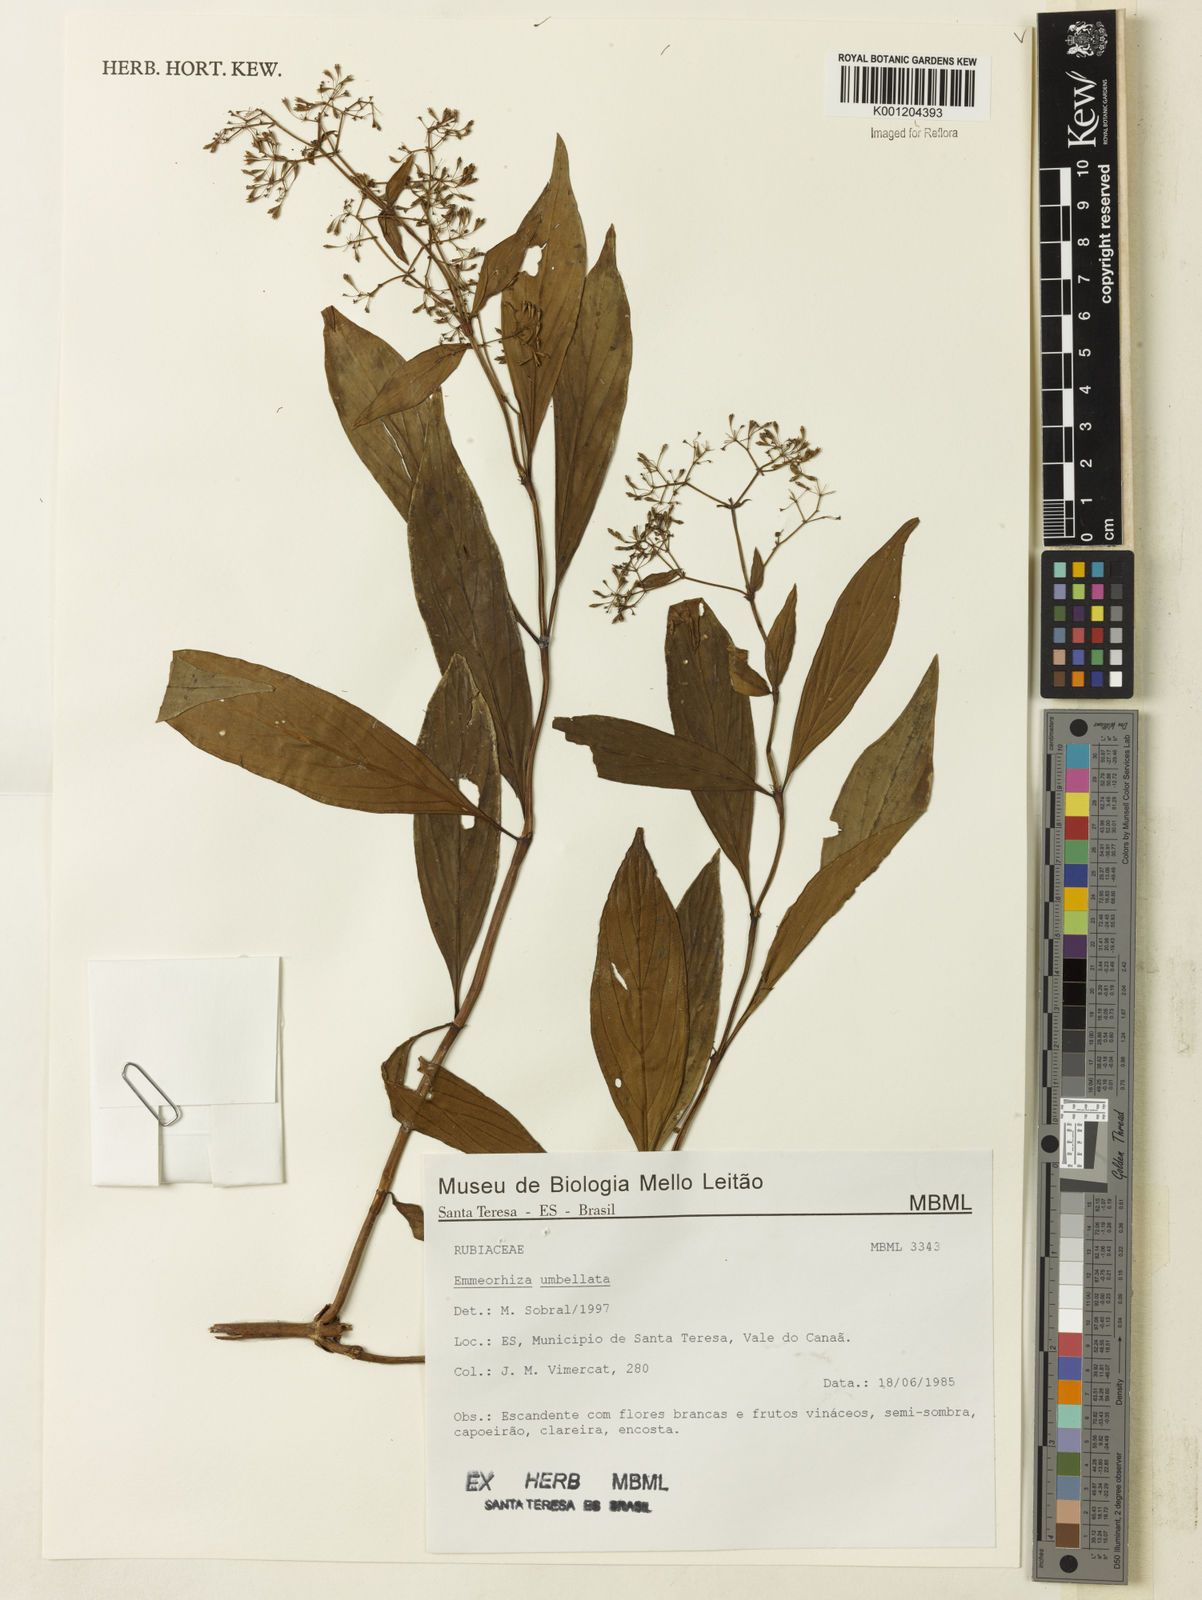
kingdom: Plantae
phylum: Tracheophyta
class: Magnoliopsida
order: Gentianales
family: Rubiaceae
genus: Emmeorhiza
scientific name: Emmeorhiza umbellata
